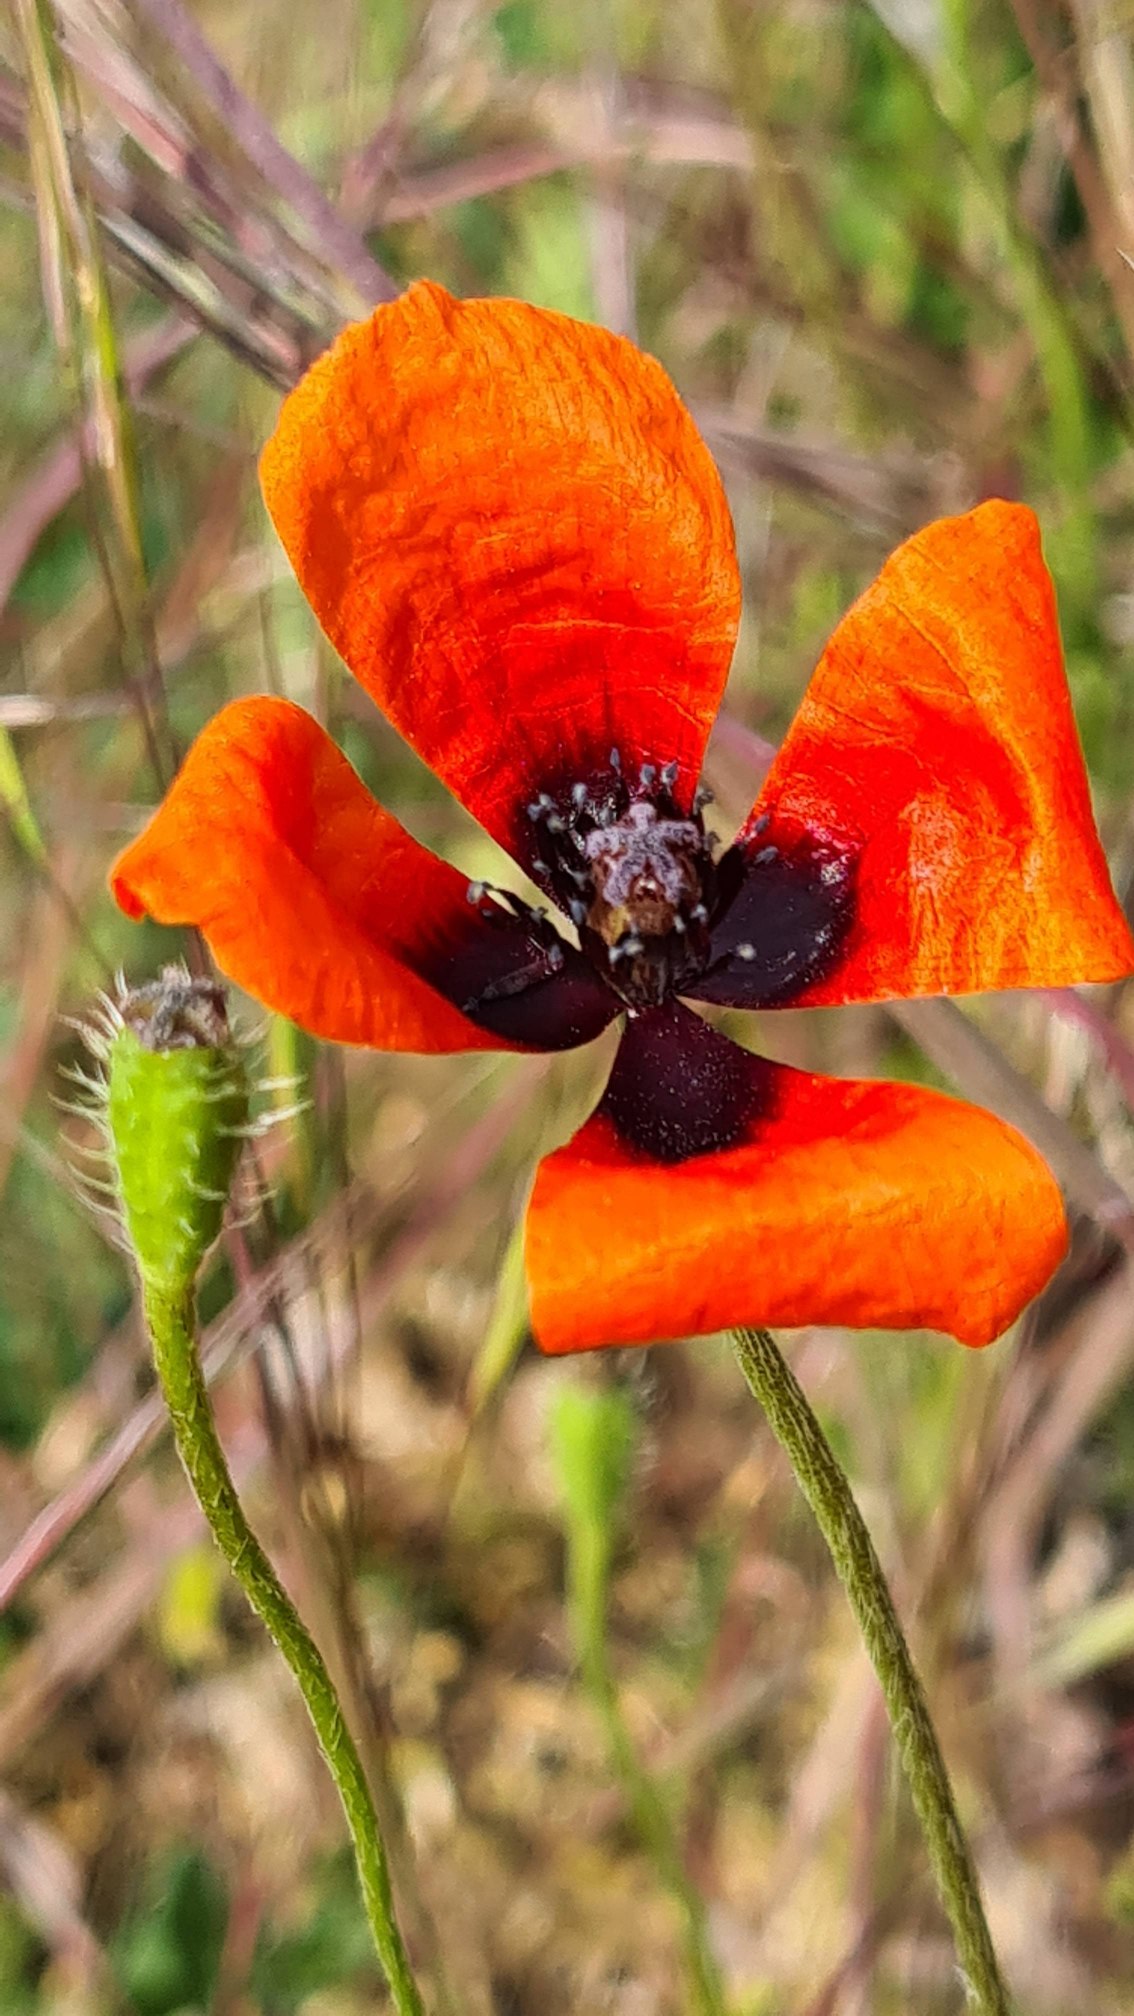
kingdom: Plantae
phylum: Tracheophyta
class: Magnoliopsida
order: Ranunculales
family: Papaveraceae
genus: Roemeria
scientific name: Roemeria argemone
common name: Kølle-valmue
